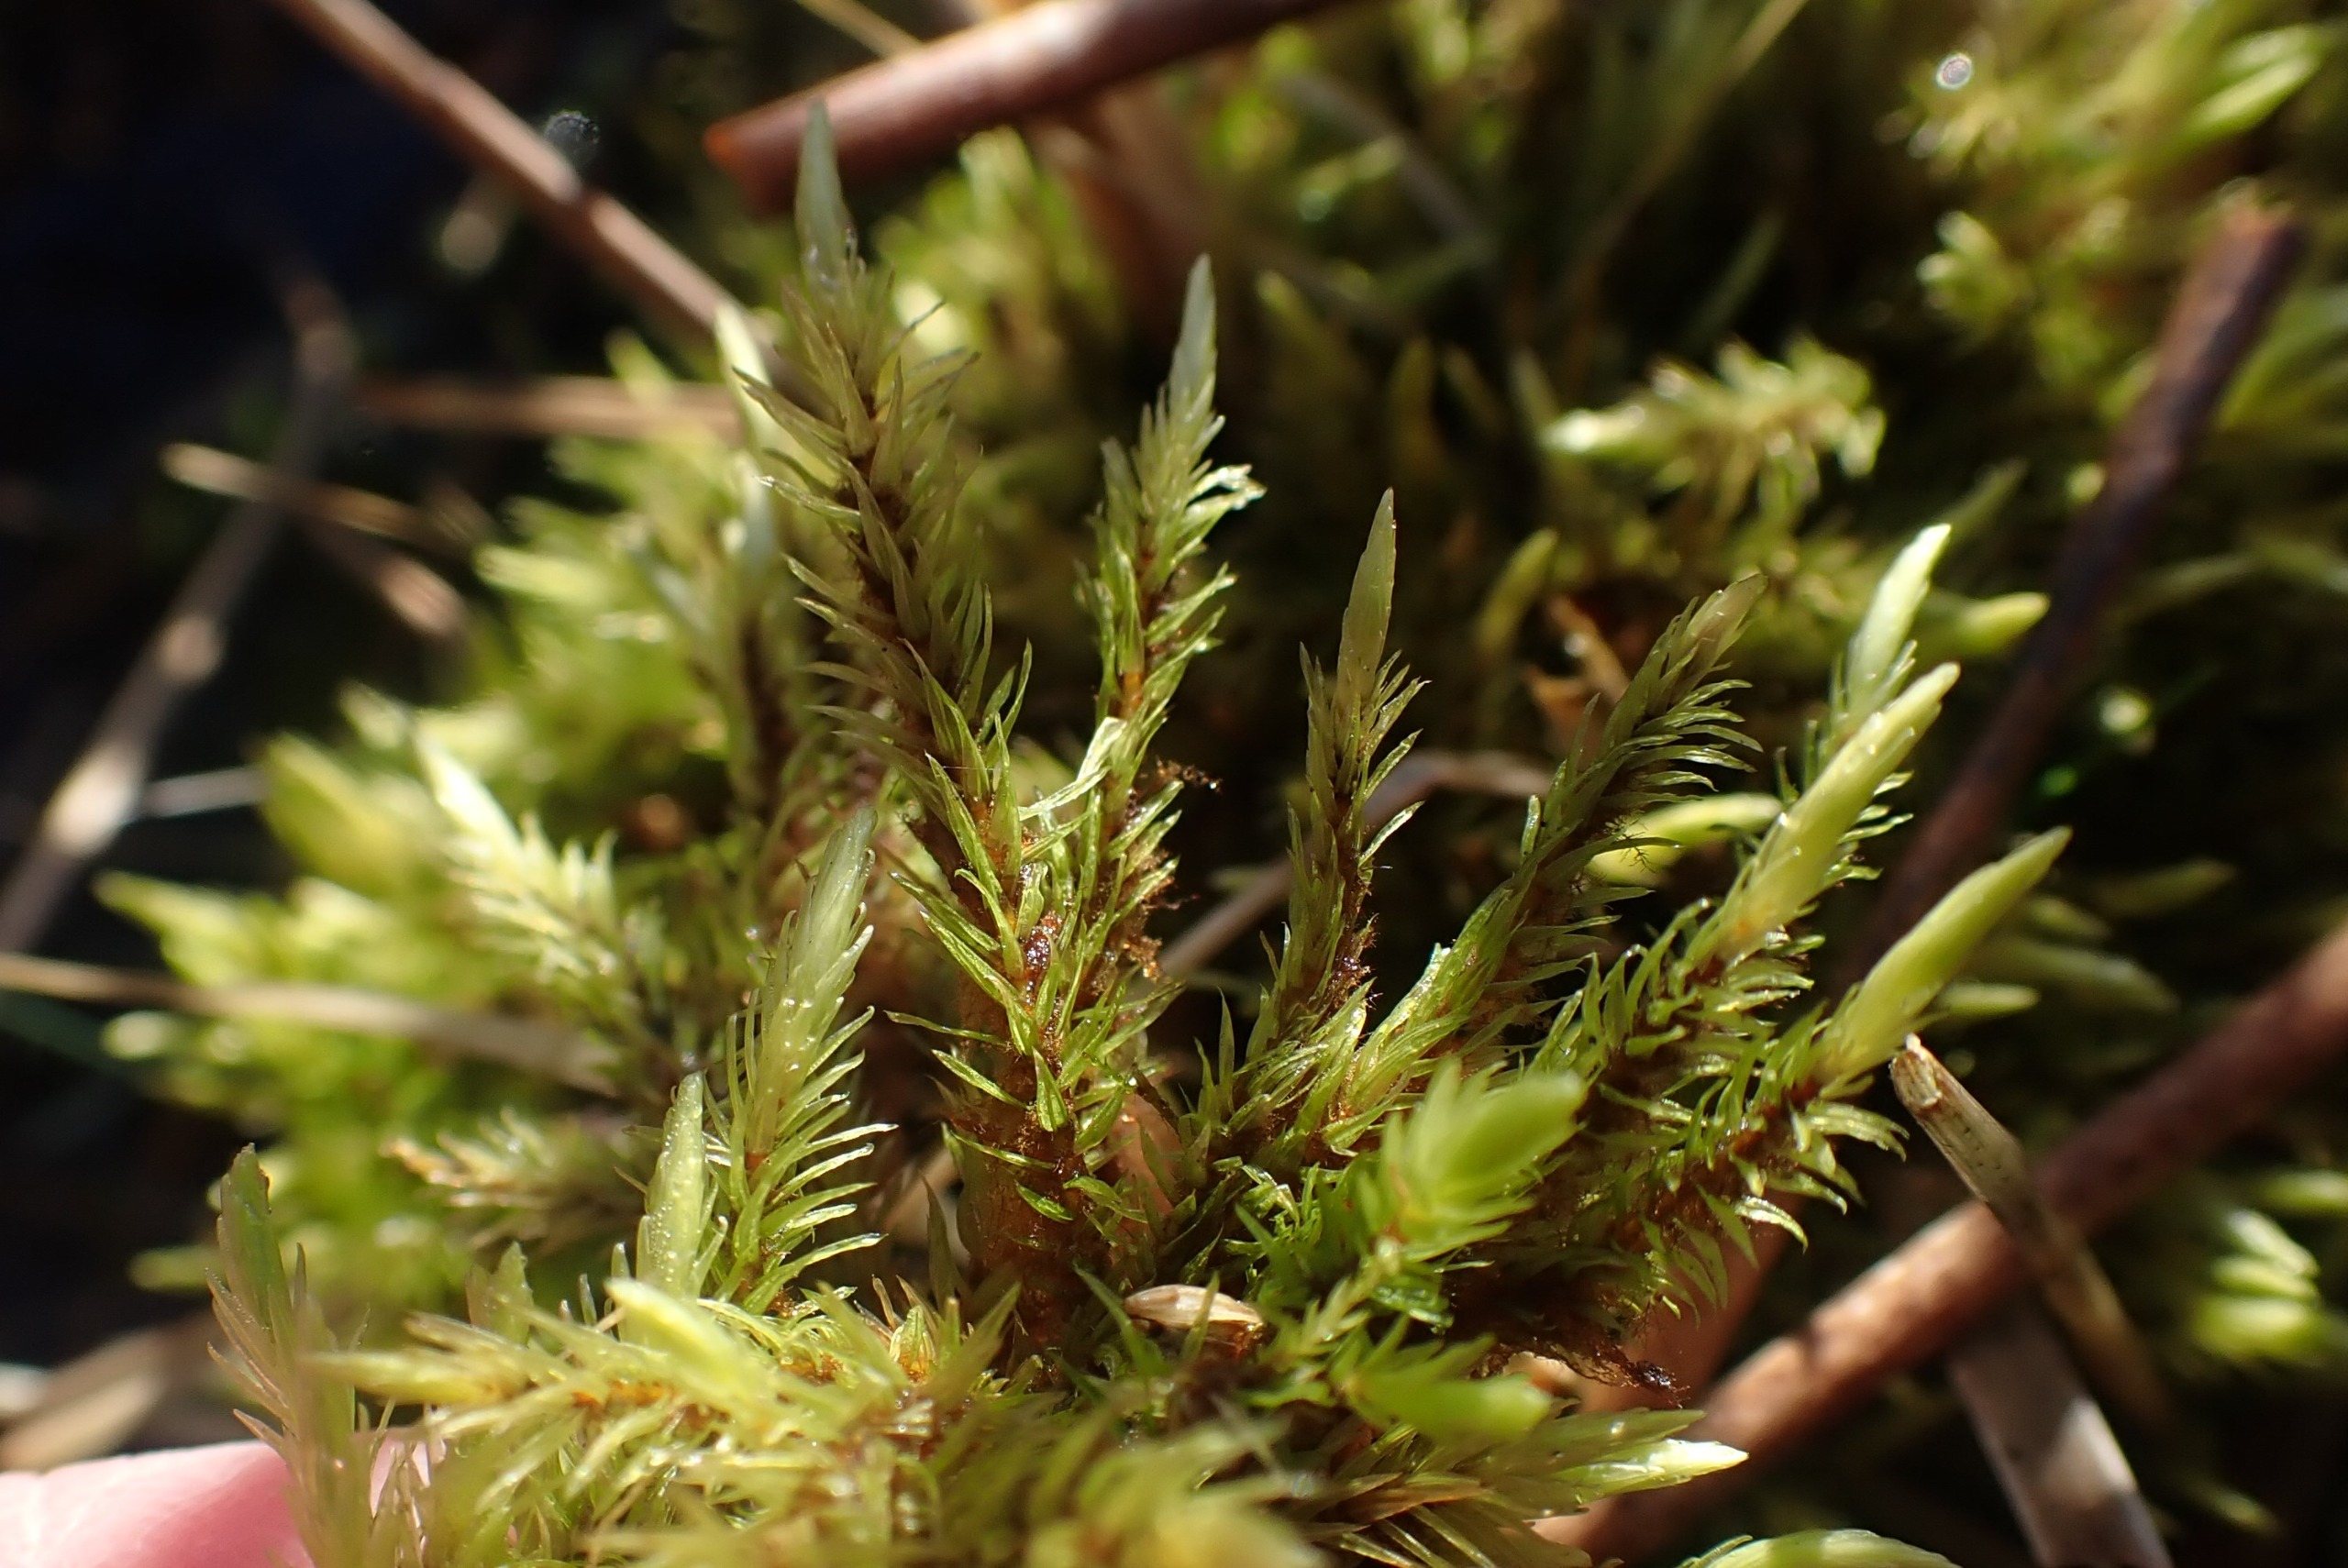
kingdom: Plantae
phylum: Bryophyta
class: Bryopsida
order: Aulacomniales
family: Aulacomniaceae
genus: Aulacomnium
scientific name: Aulacomnium palustre
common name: Almindelig filtmos
